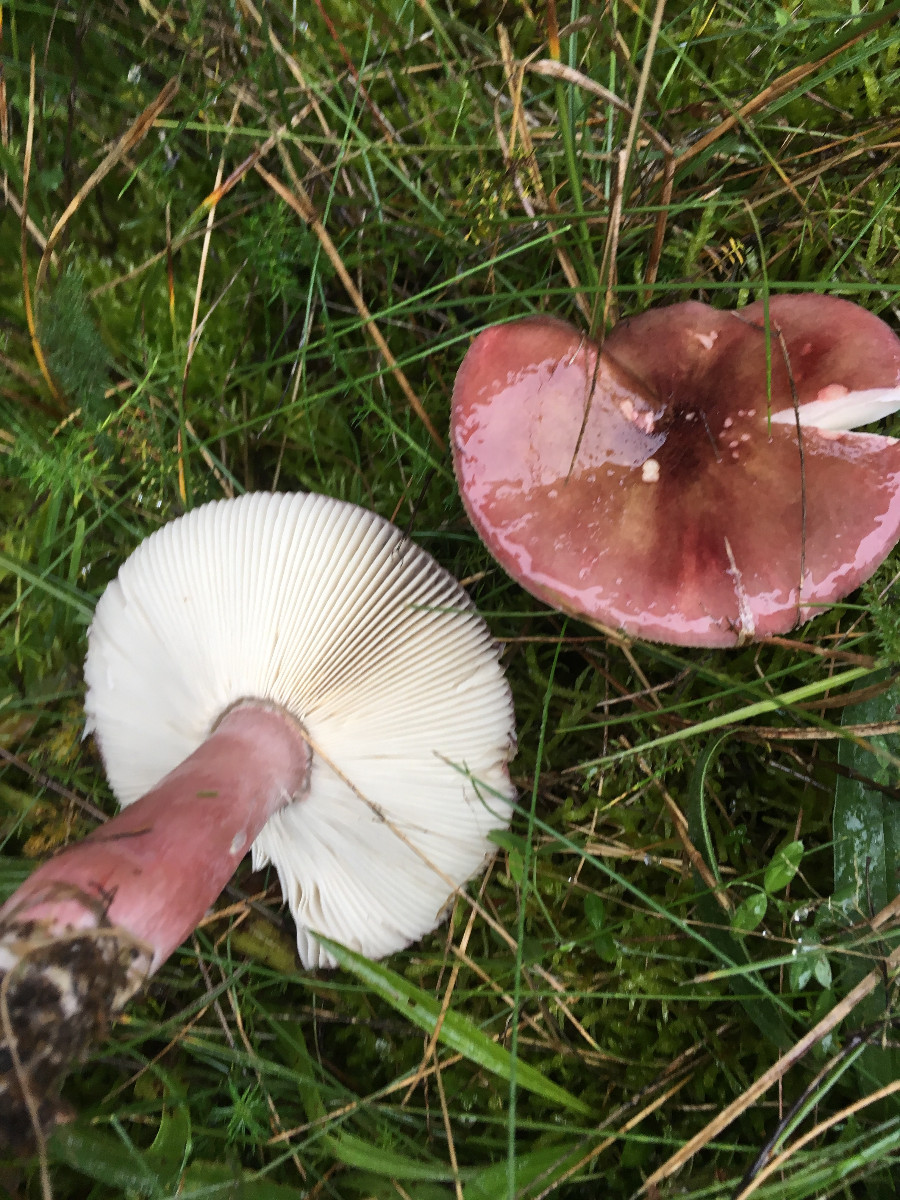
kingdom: Fungi
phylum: Basidiomycota
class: Agaricomycetes
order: Russulales
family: Russulaceae
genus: Russula
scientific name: Russula queletii
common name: Quélets skørhat
